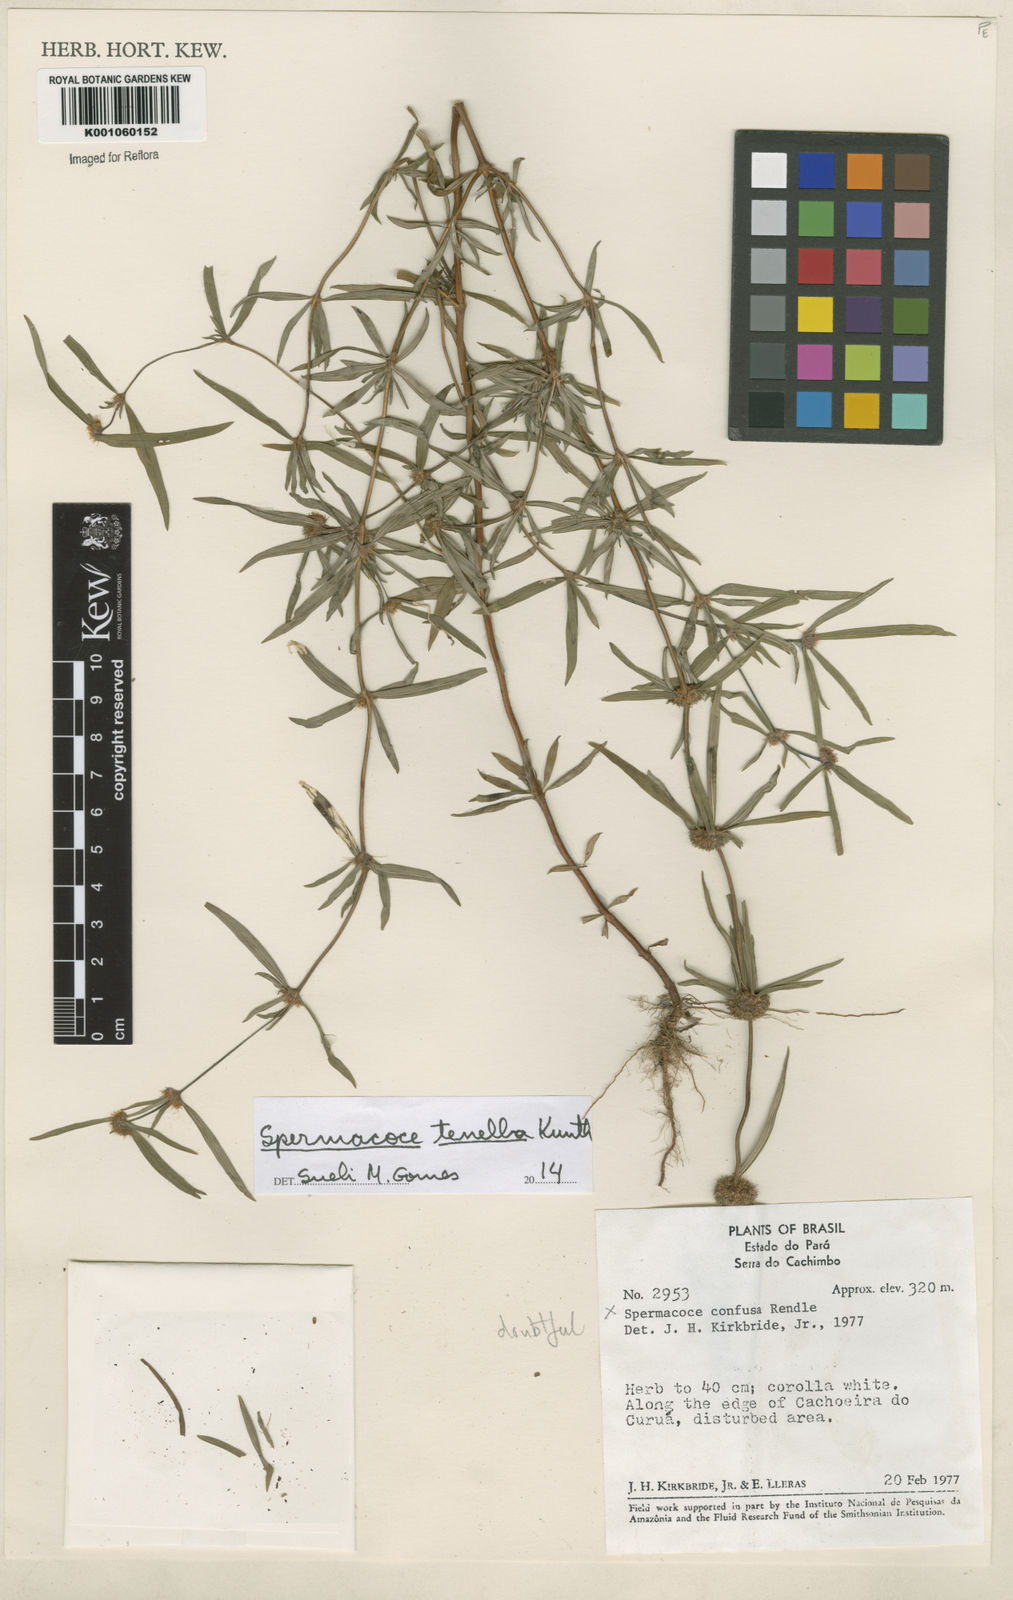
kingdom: Plantae
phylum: Tracheophyta
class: Magnoliopsida
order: Gentianales
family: Rubiaceae
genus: Spermacoce
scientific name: Spermacoce orinocensis
